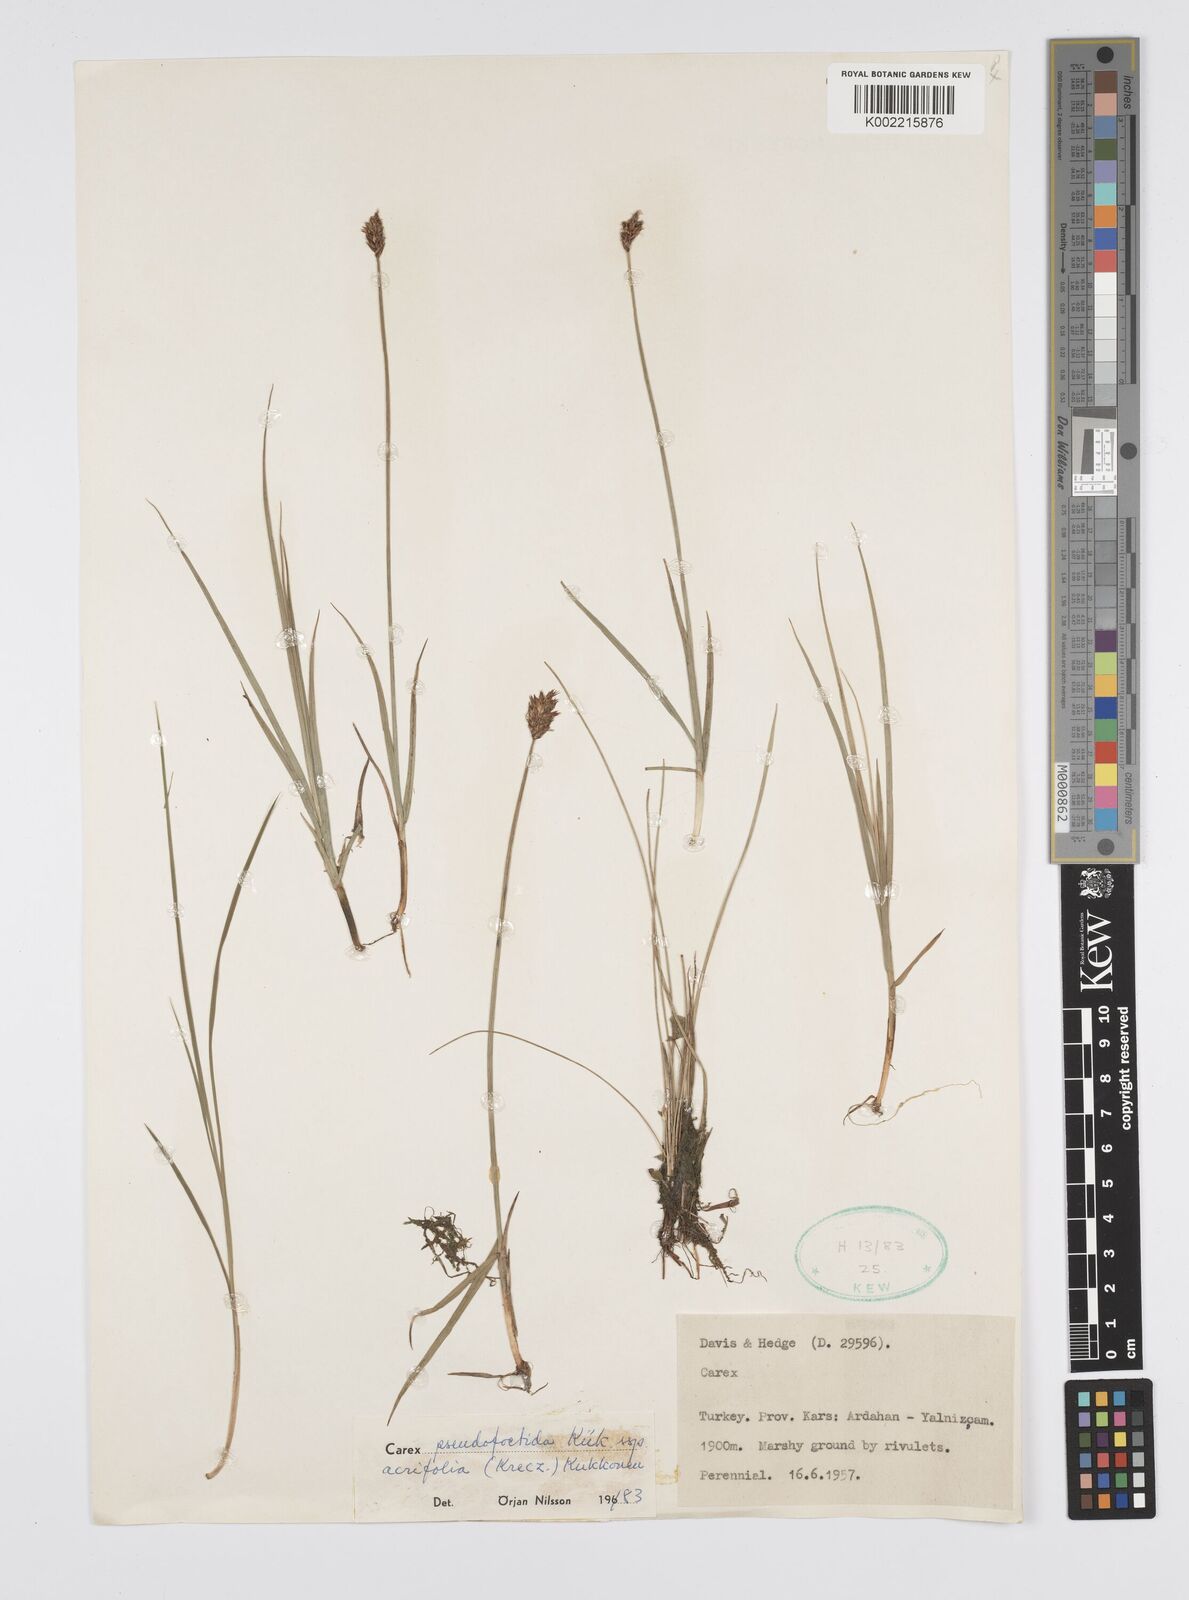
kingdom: Plantae
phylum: Tracheophyta
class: Liliopsida
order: Poales
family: Cyperaceae
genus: Carex
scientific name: Carex pseudofoetida
